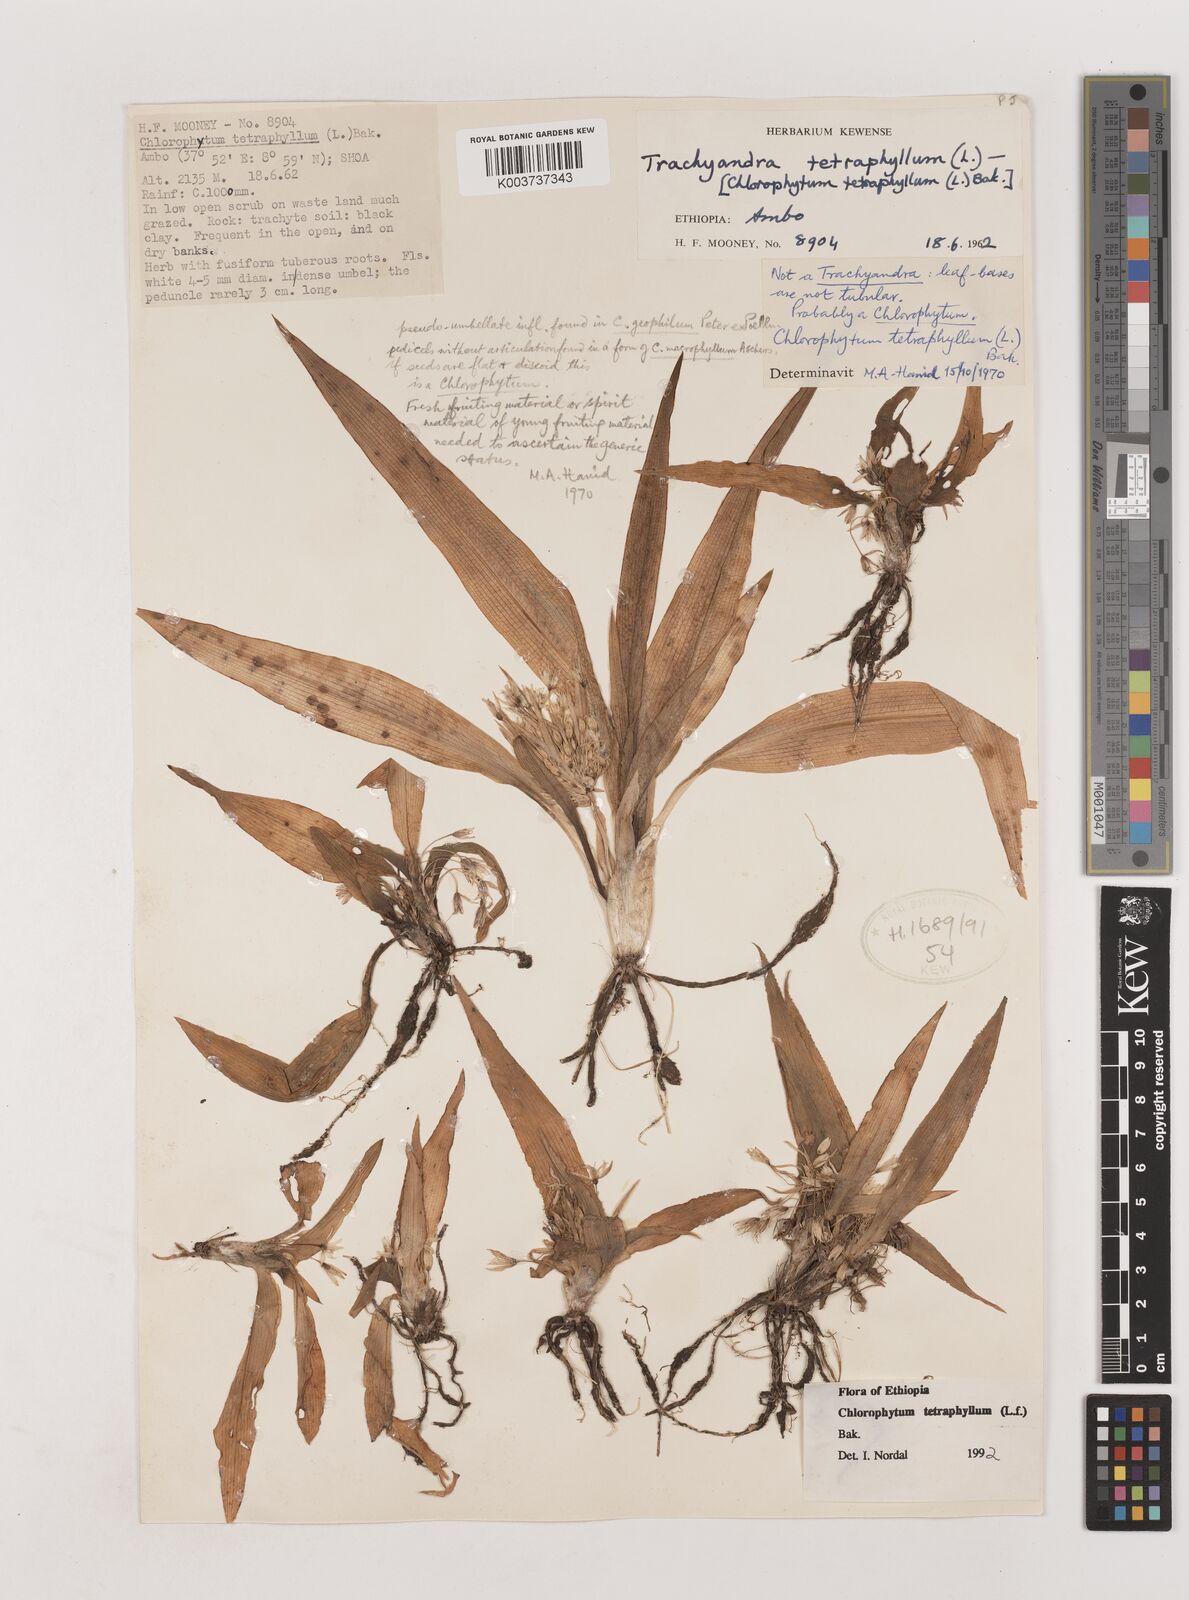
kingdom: Plantae
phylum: Tracheophyta
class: Liliopsida
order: Asparagales
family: Asparagaceae
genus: Chlorophytum
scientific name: Chlorophytum tetraphyllum
